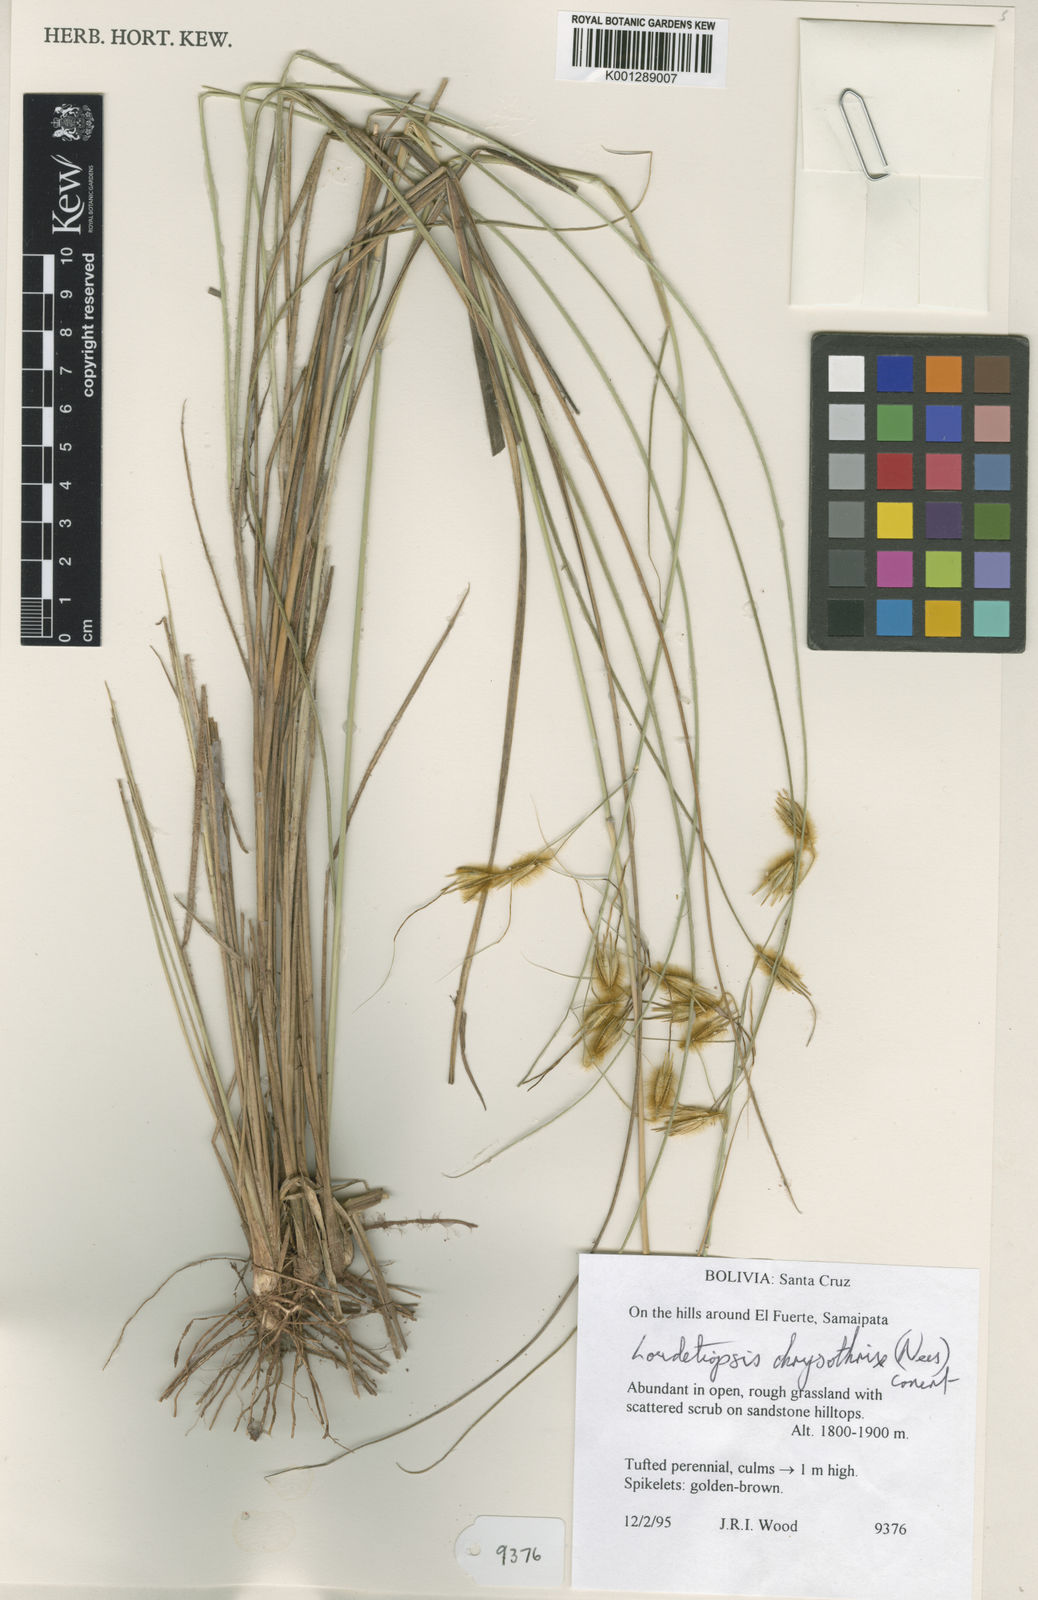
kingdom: Plantae
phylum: Tracheophyta
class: Liliopsida
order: Poales
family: Poaceae
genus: Loudetiopsis
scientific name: Loudetiopsis chrysothrix
